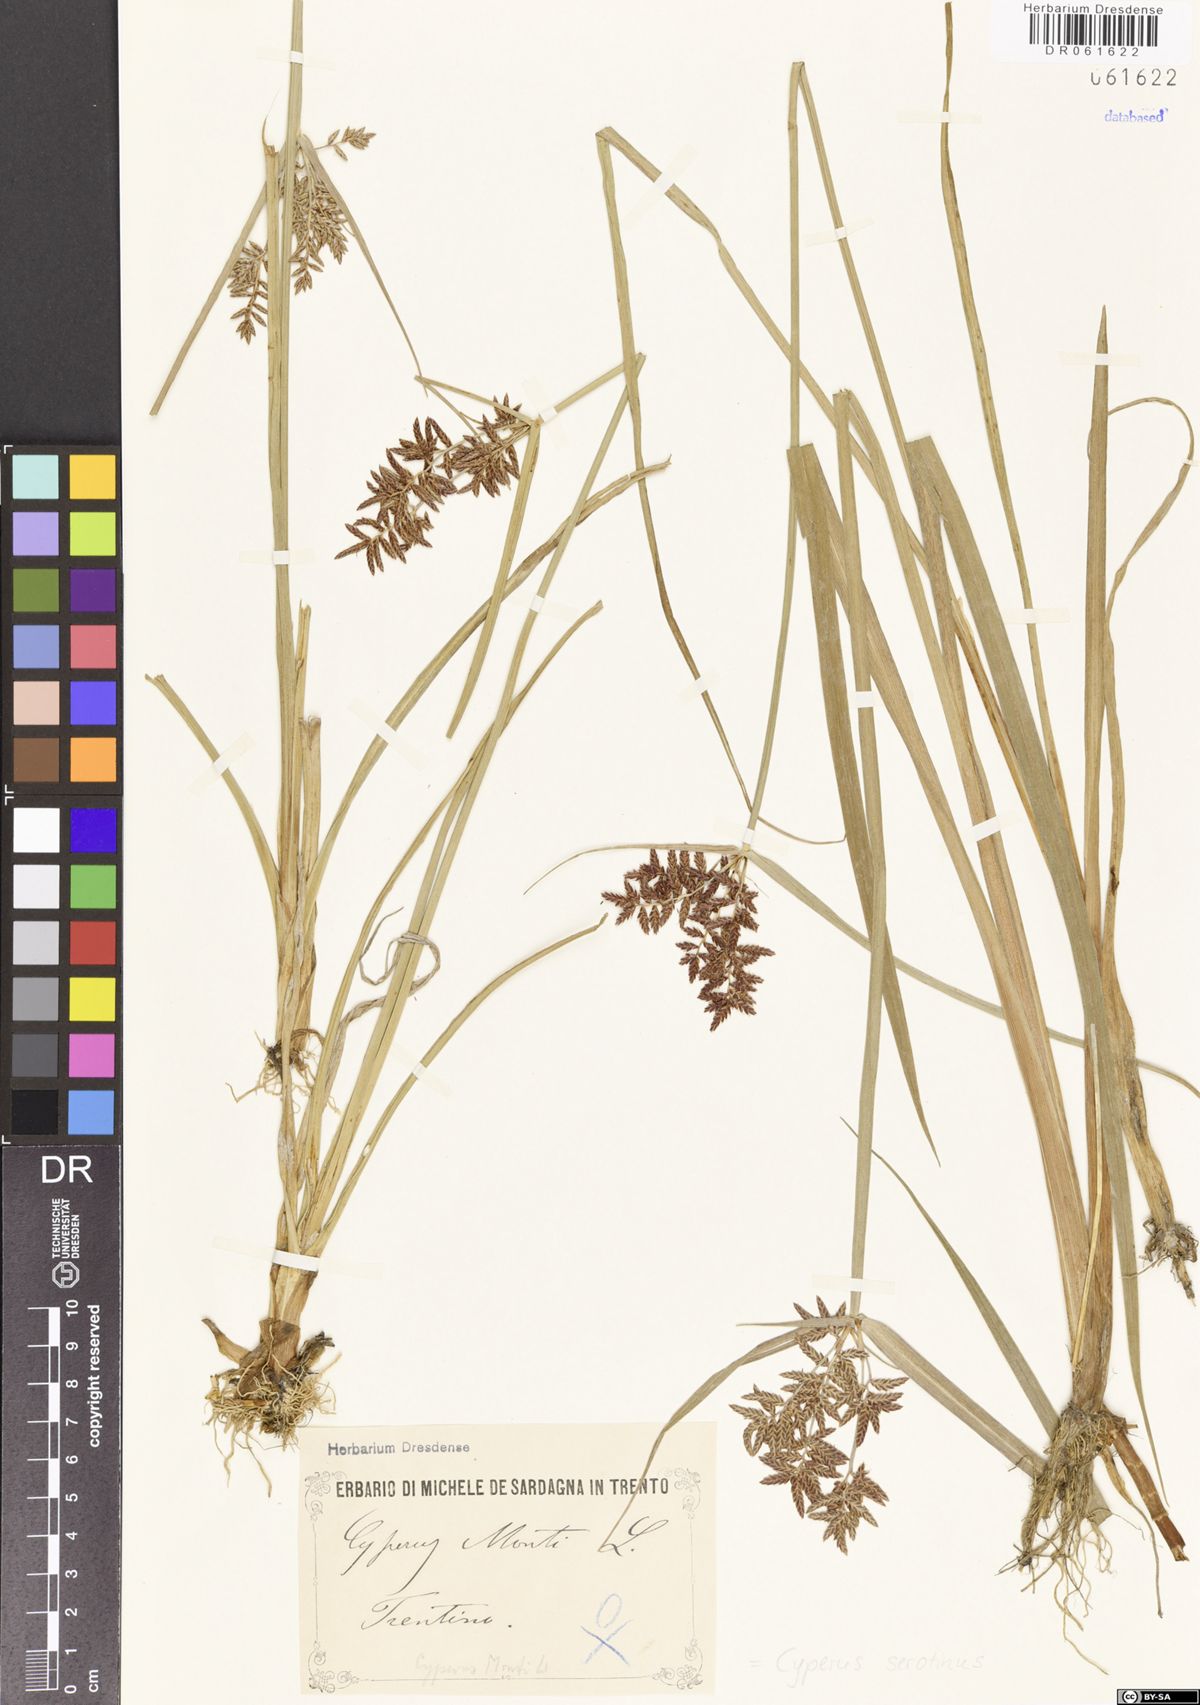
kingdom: Plantae
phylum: Tracheophyta
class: Liliopsida
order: Poales
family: Cyperaceae
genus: Cyperus
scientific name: Cyperus serotinus
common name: Tidalmarsh flatsedge
